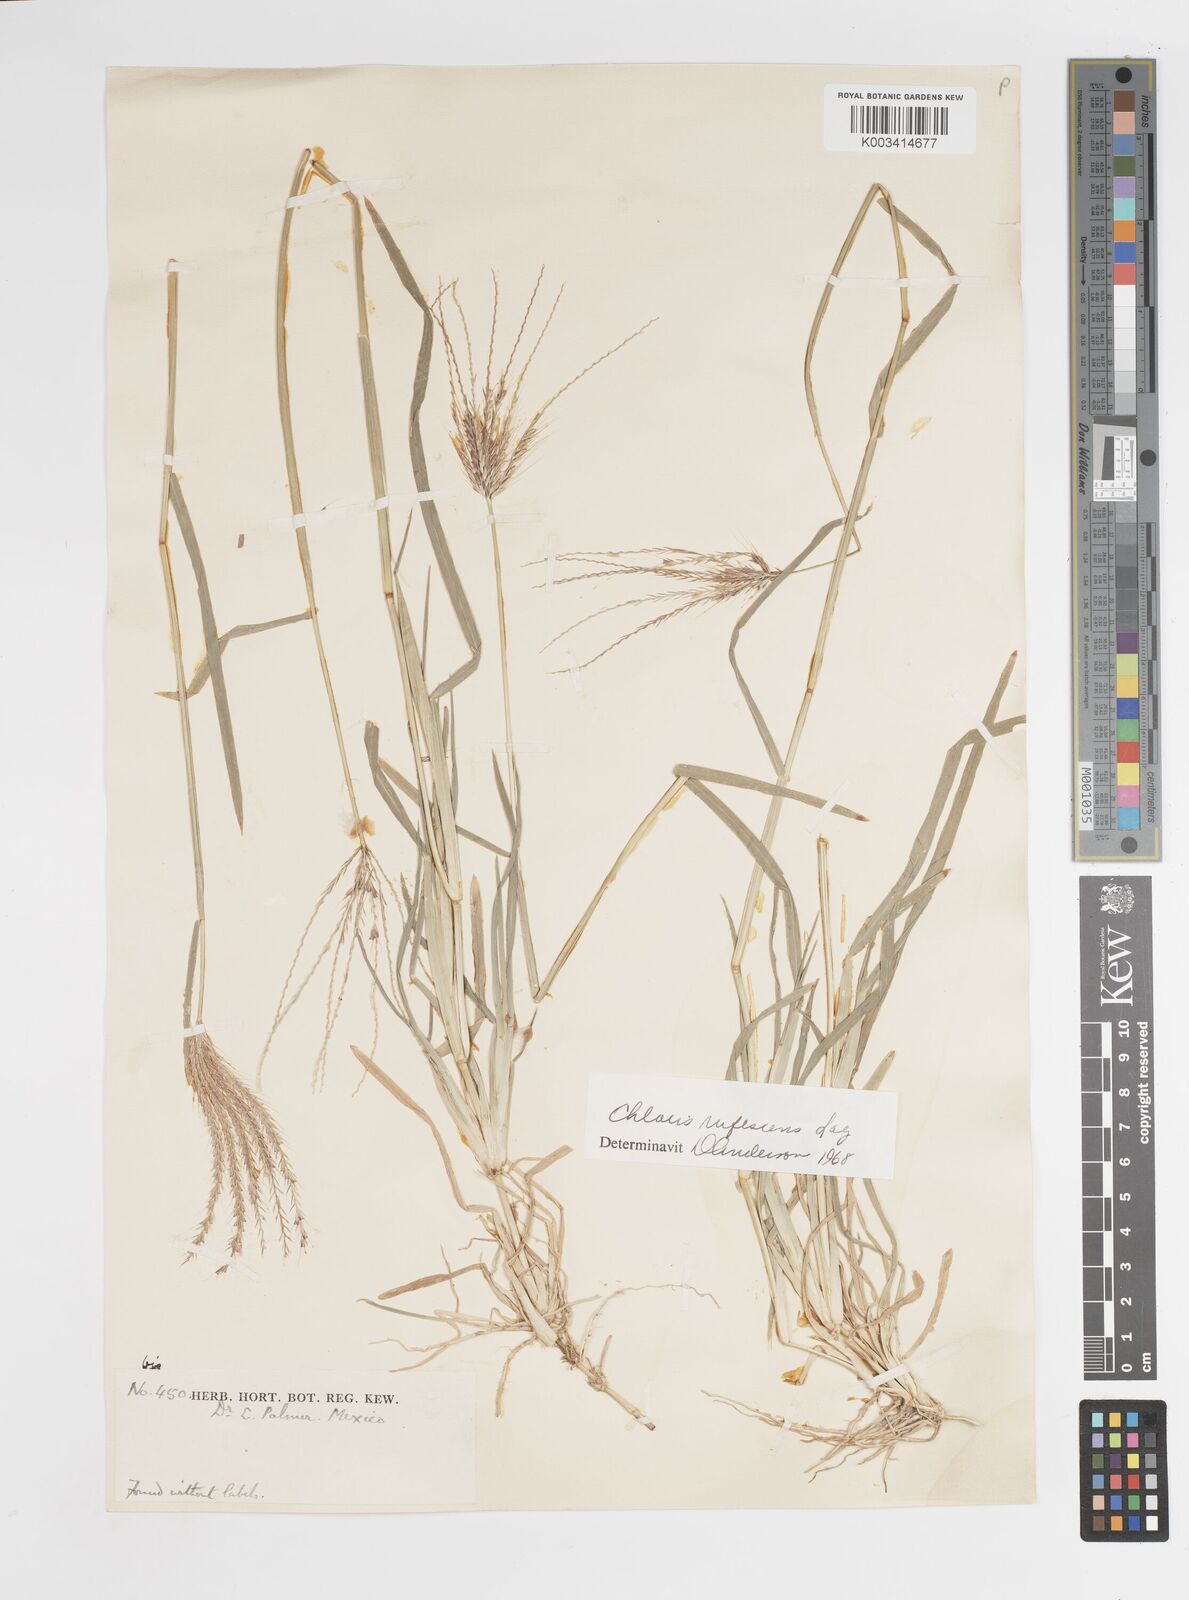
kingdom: Plantae
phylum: Tracheophyta
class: Liliopsida
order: Poales
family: Poaceae
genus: Chloris
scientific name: Chloris rufescens
